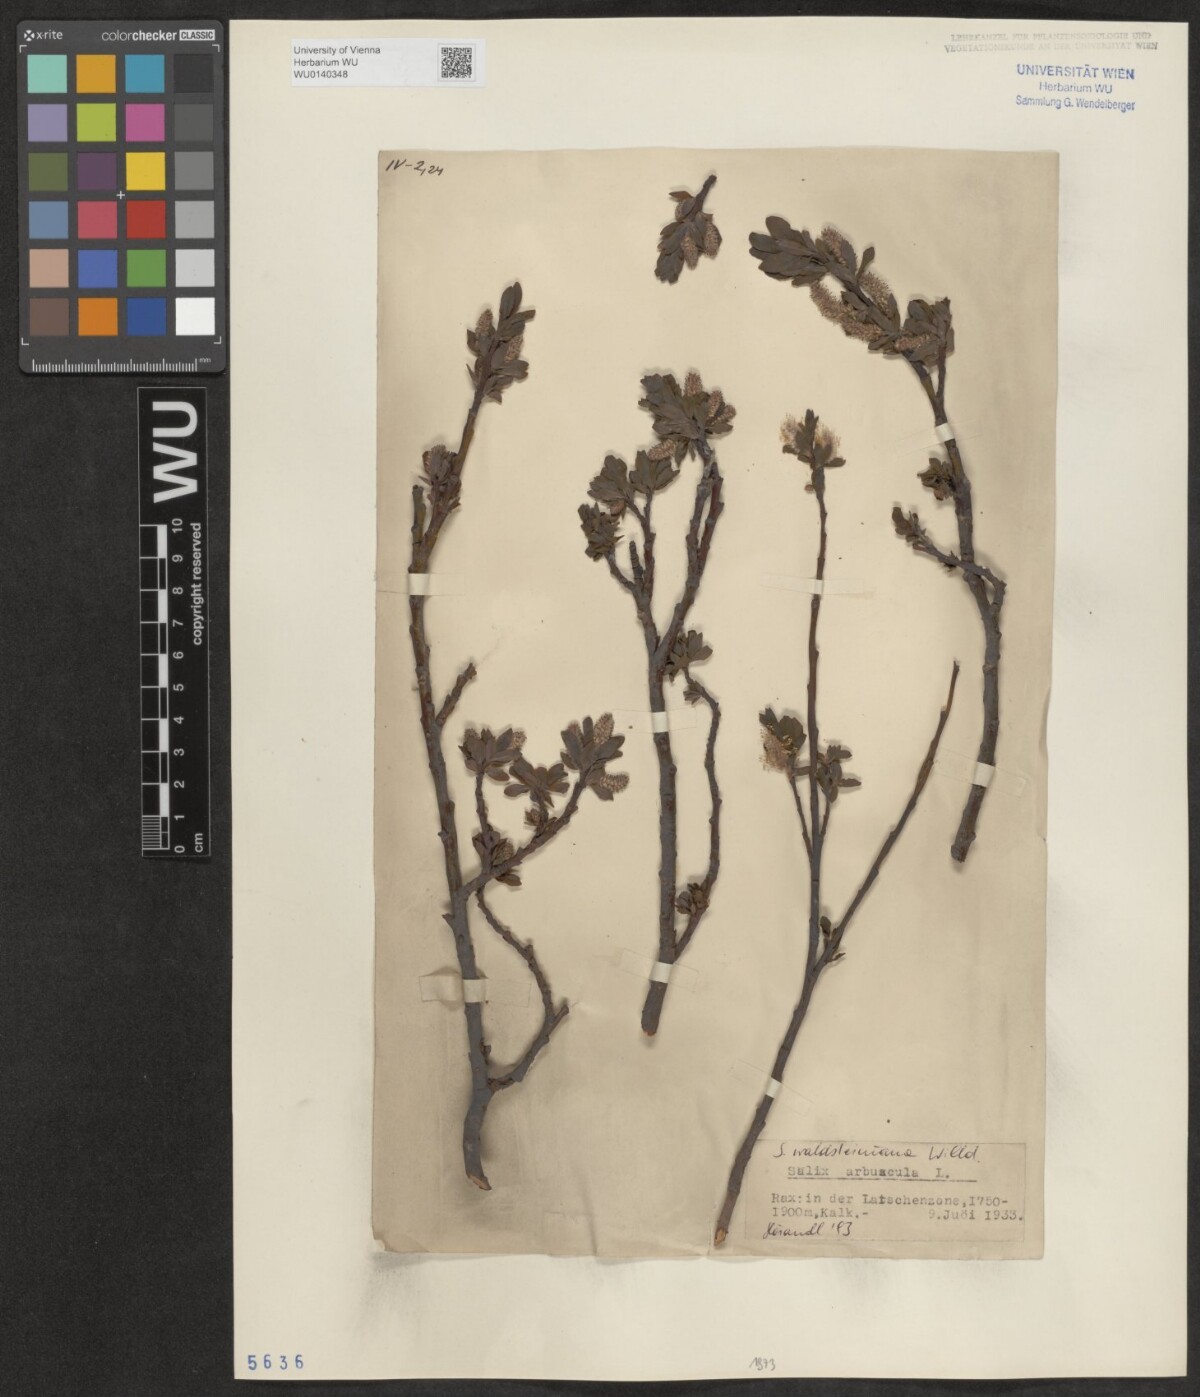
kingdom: Plantae
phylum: Tracheophyta
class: Magnoliopsida
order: Malpighiales
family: Salicaceae
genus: Salix
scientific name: Salix waldsteiniana
